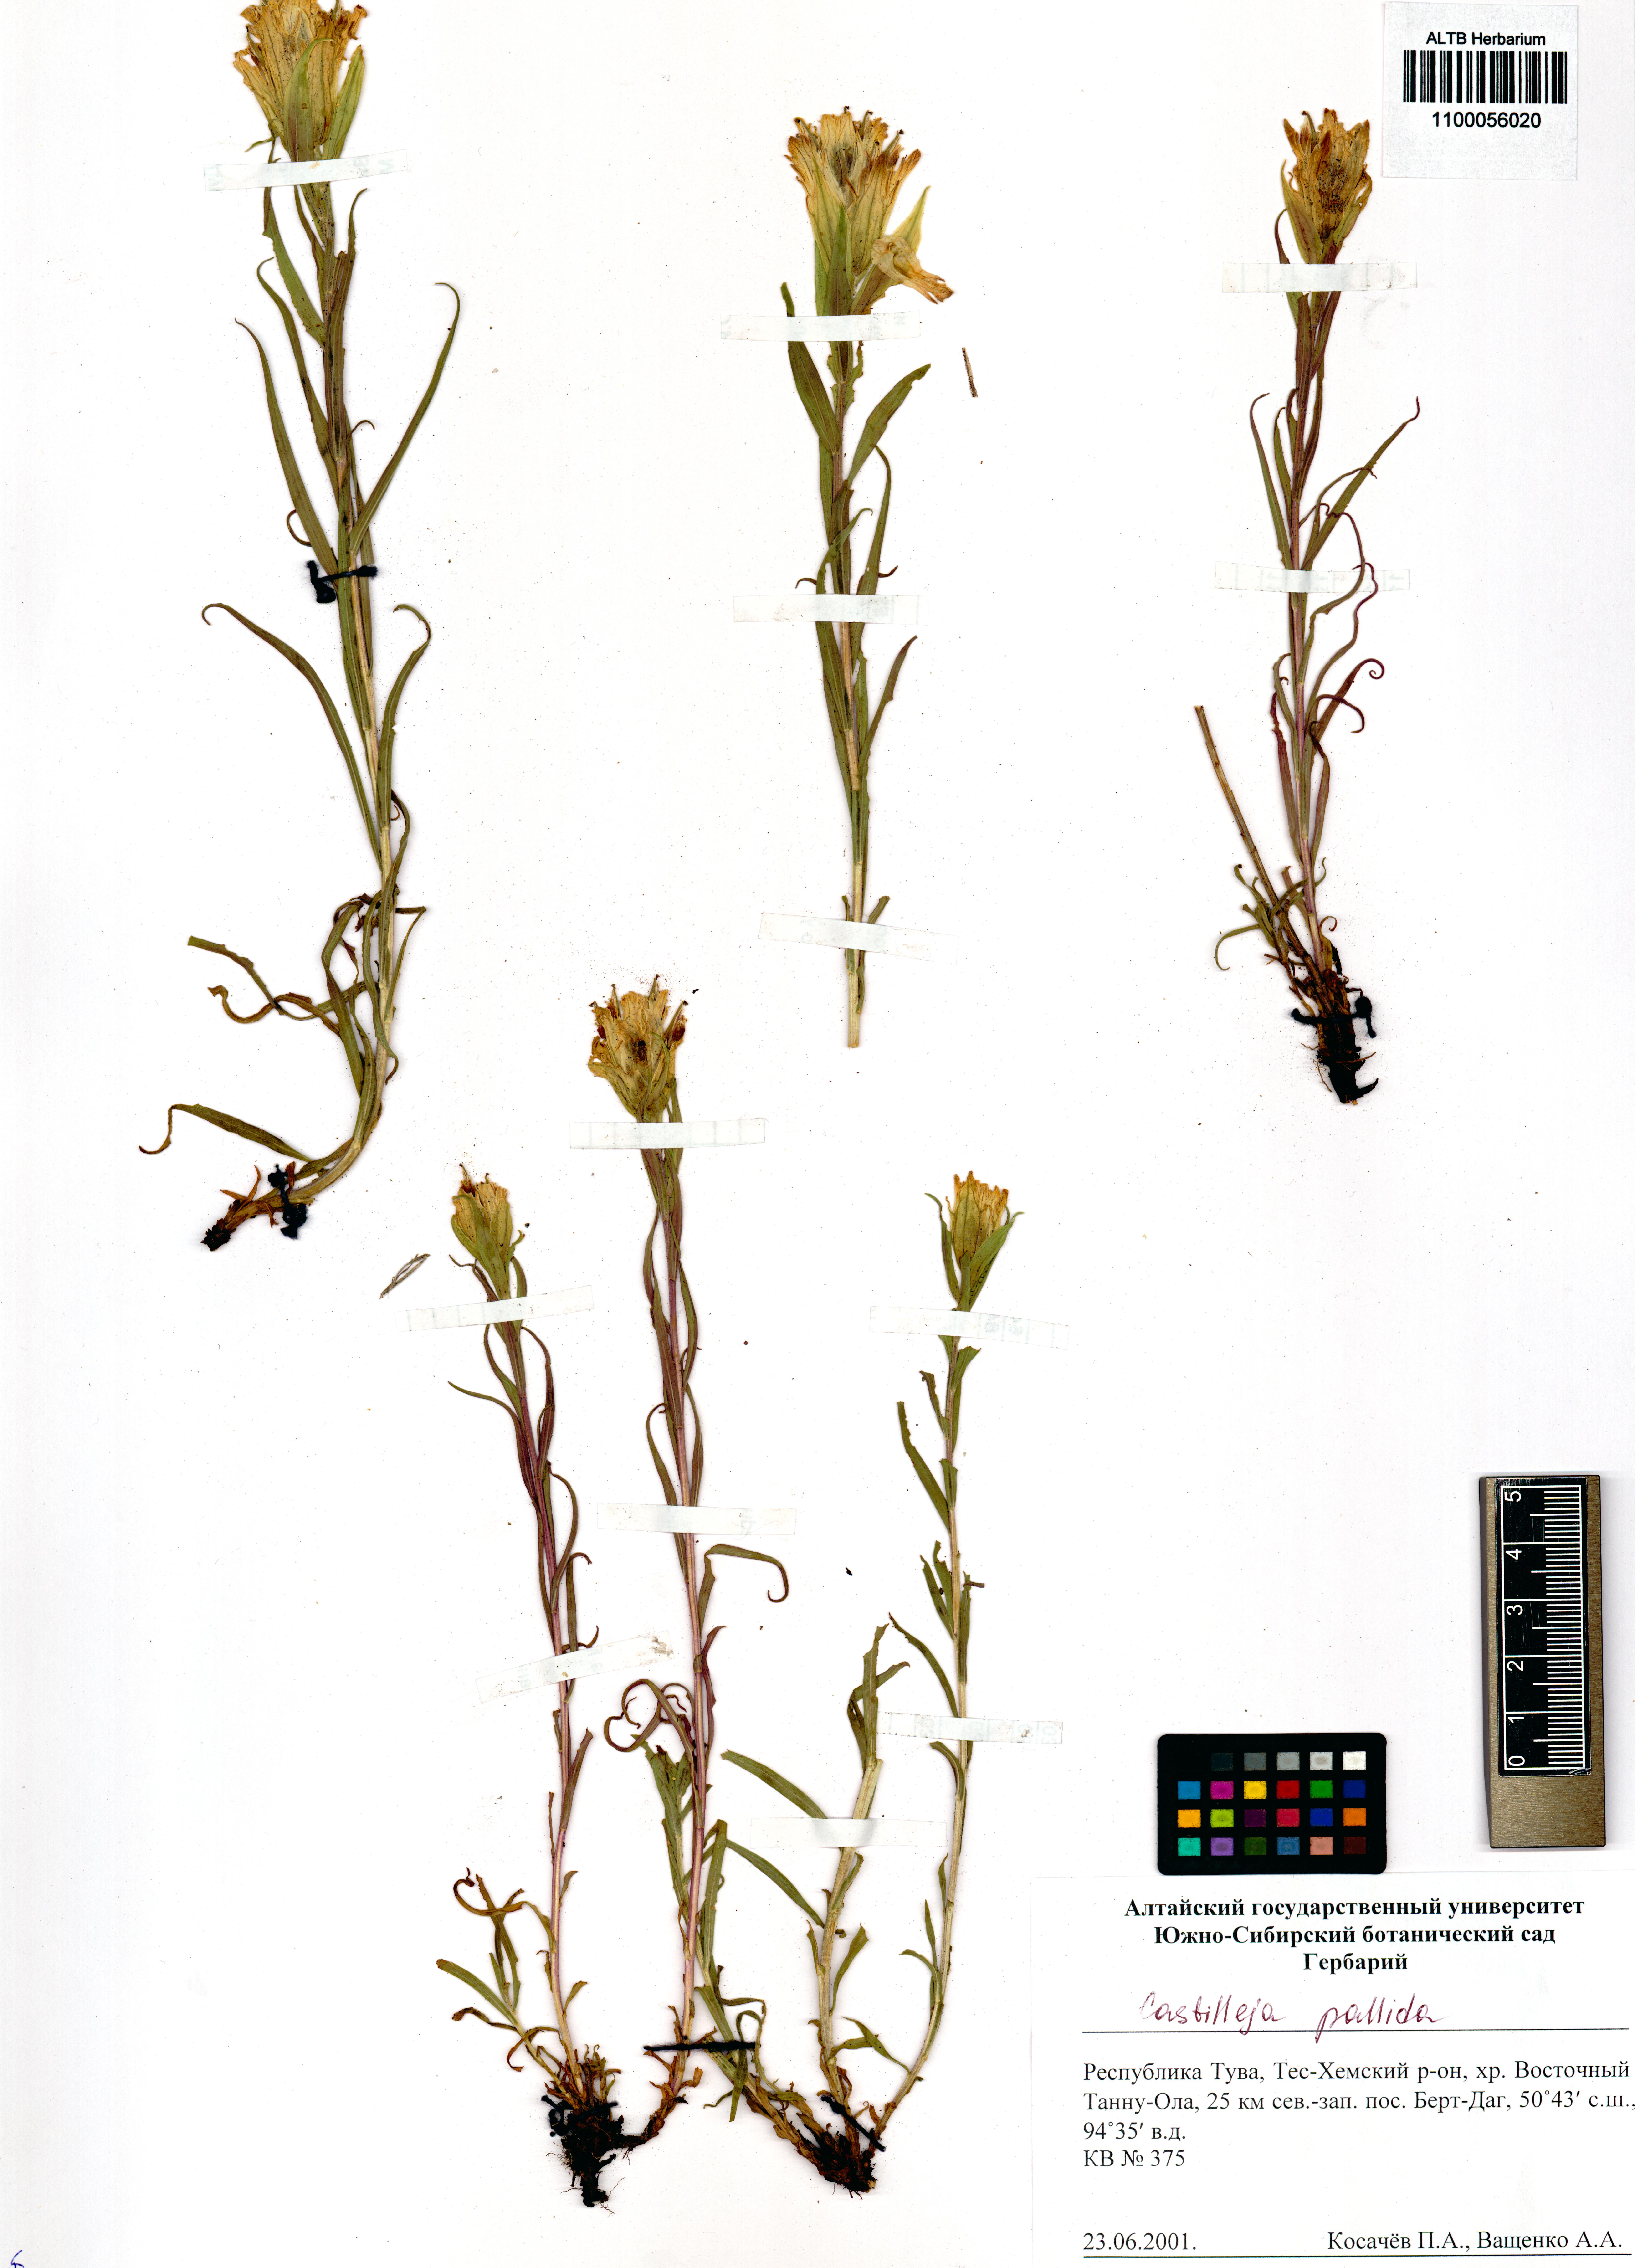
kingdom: Plantae
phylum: Tracheophyta
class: Magnoliopsida
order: Lamiales
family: Orobanchaceae
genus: Castilleja
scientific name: Castilleja pallida
